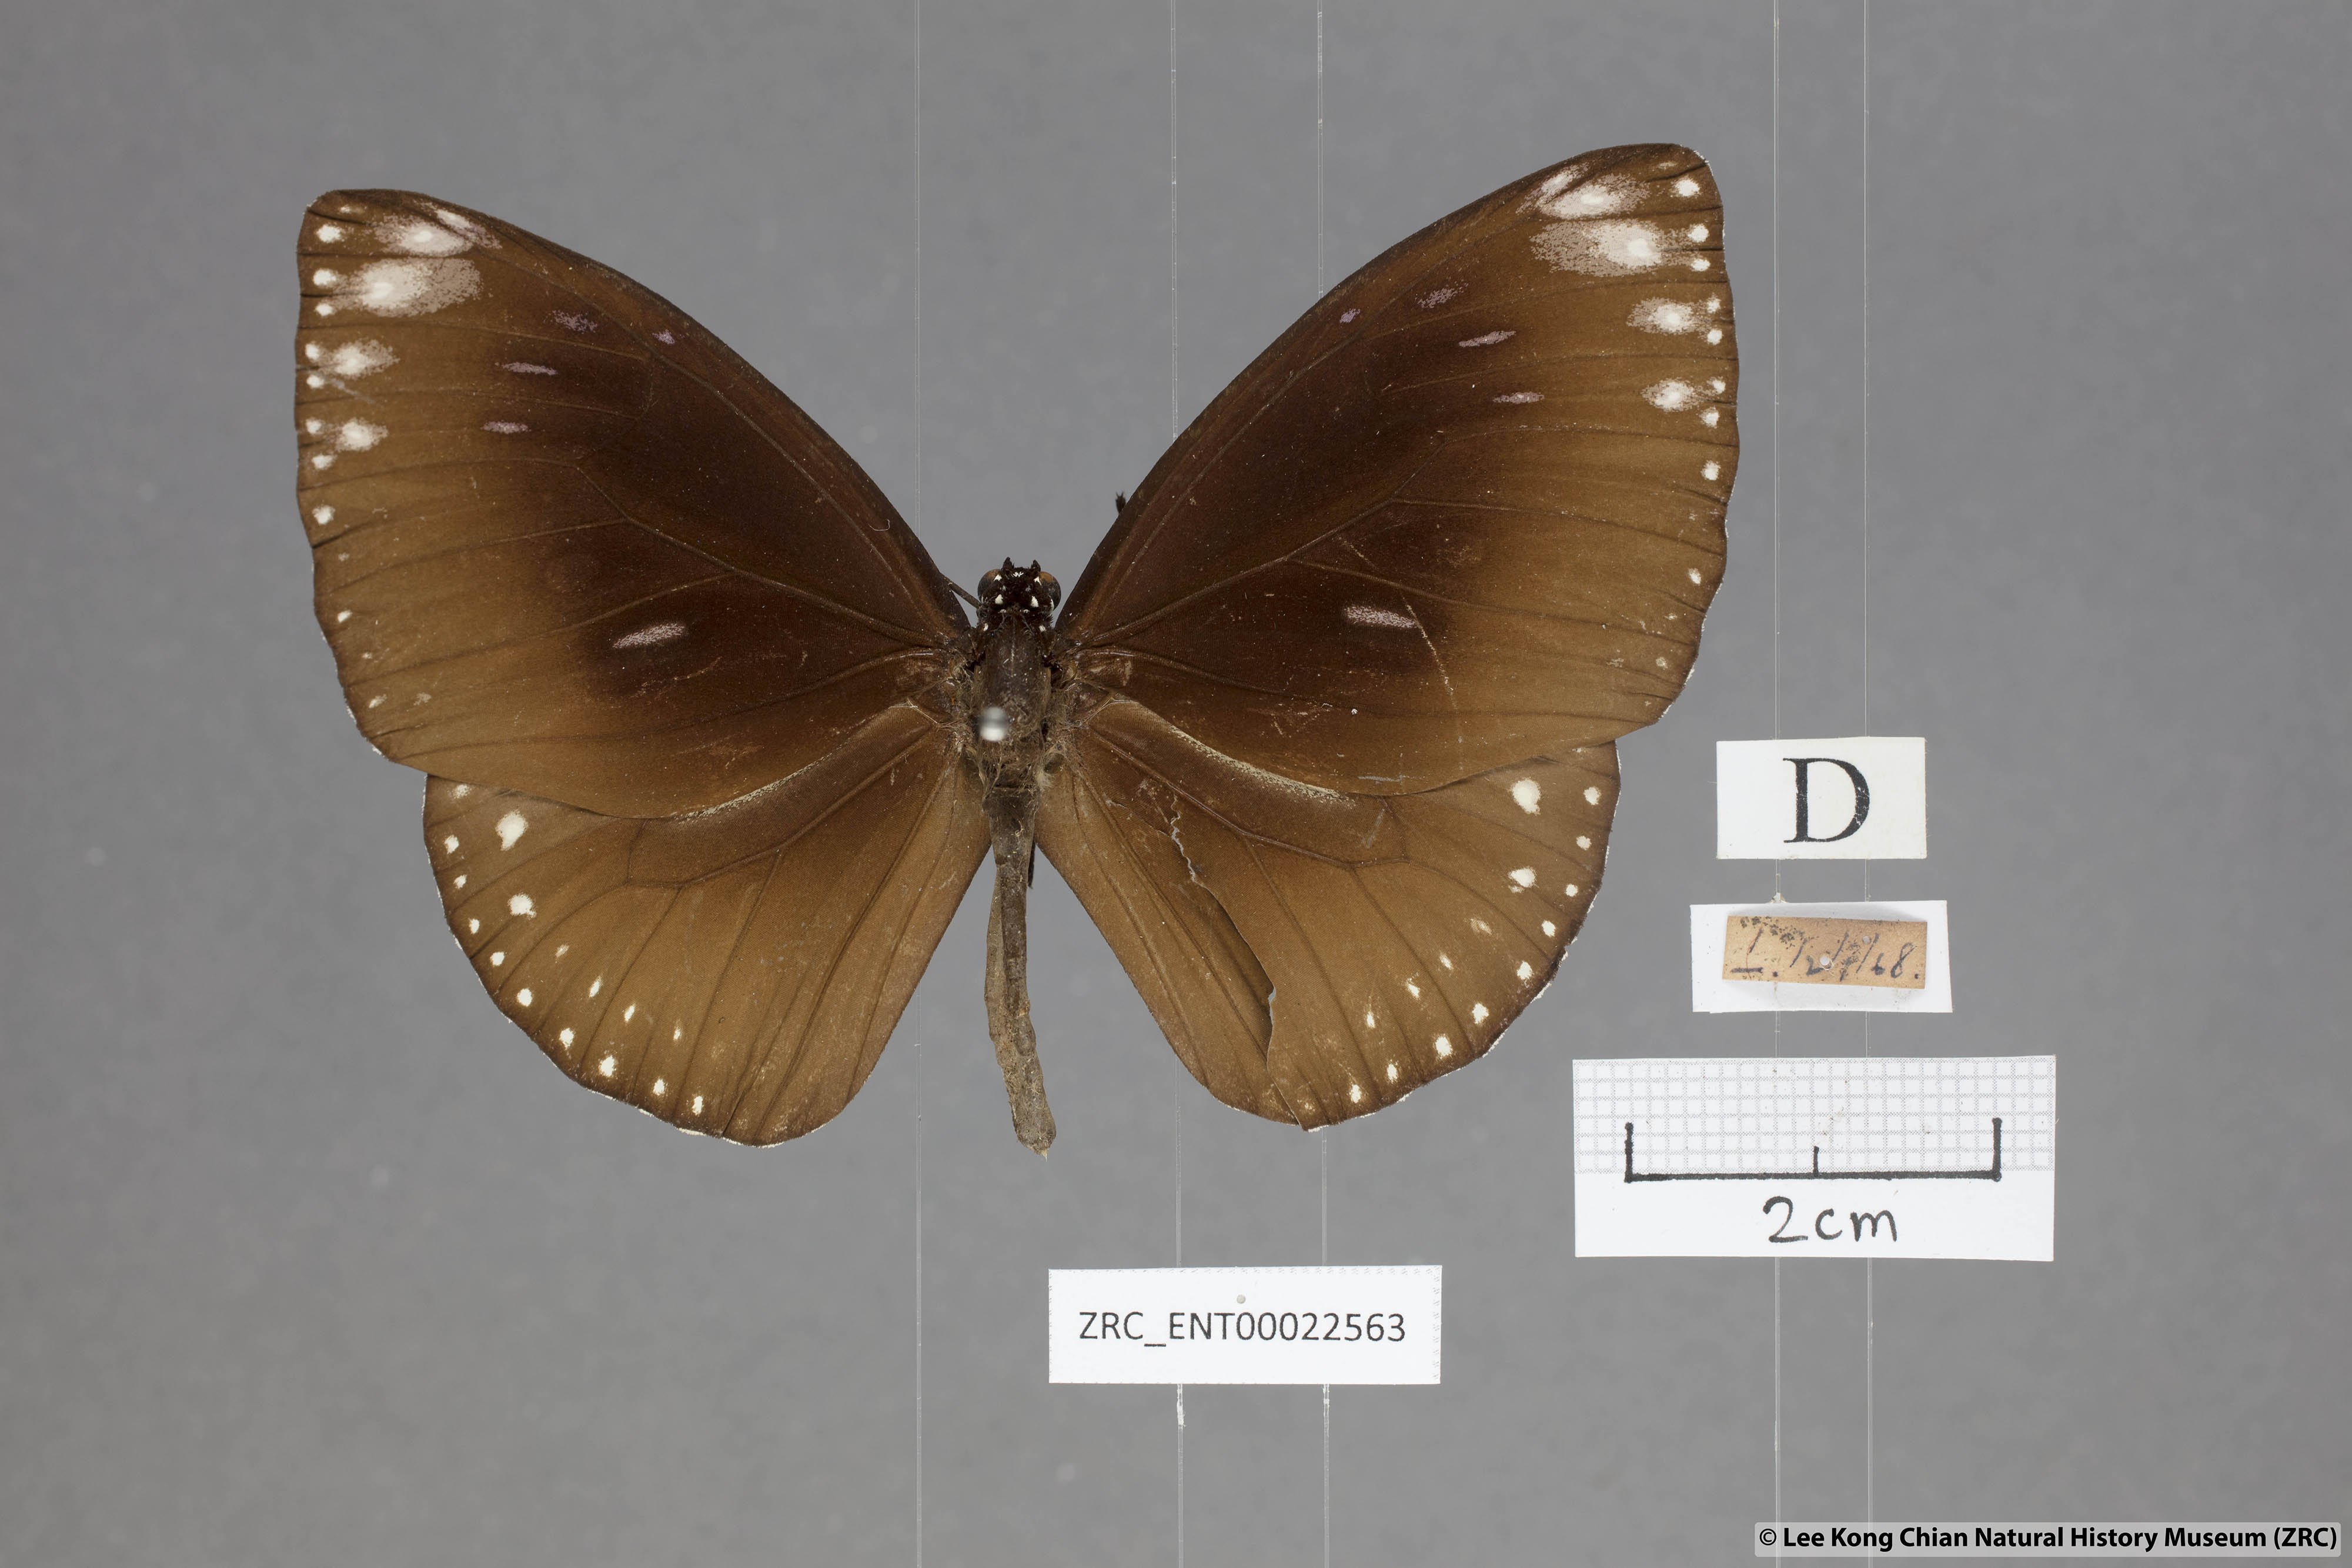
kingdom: Animalia
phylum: Arthropoda
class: Insecta
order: Lepidoptera
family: Nymphalidae
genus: Euploea
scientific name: Euploea klugii
